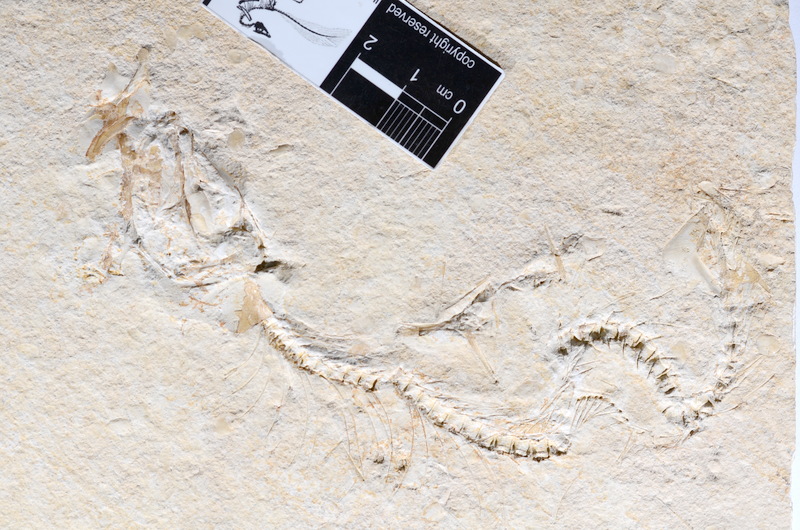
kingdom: Animalia
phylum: Chordata
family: Allothrissopidae
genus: Allothrissops
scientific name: Allothrissops
